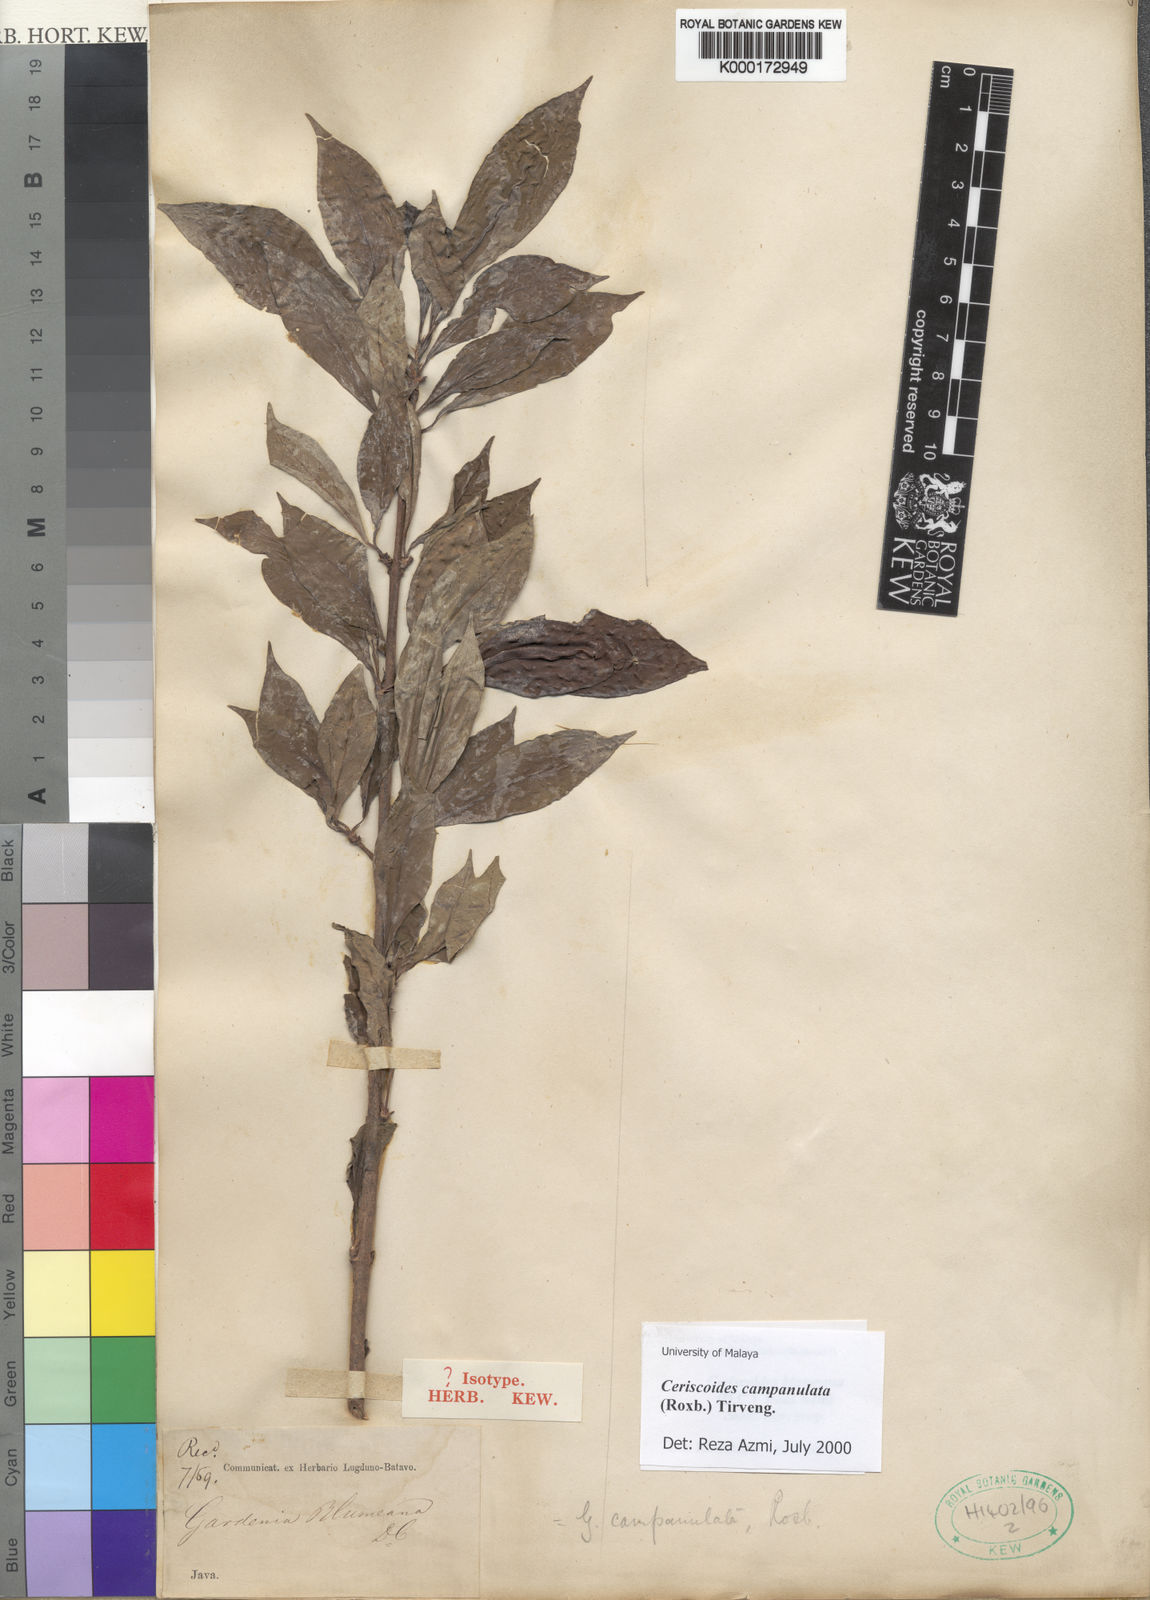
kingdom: Plantae
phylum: Tracheophyta
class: Magnoliopsida
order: Gentianales
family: Rubiaceae
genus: Ceriscoides
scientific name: Ceriscoides campanulata
